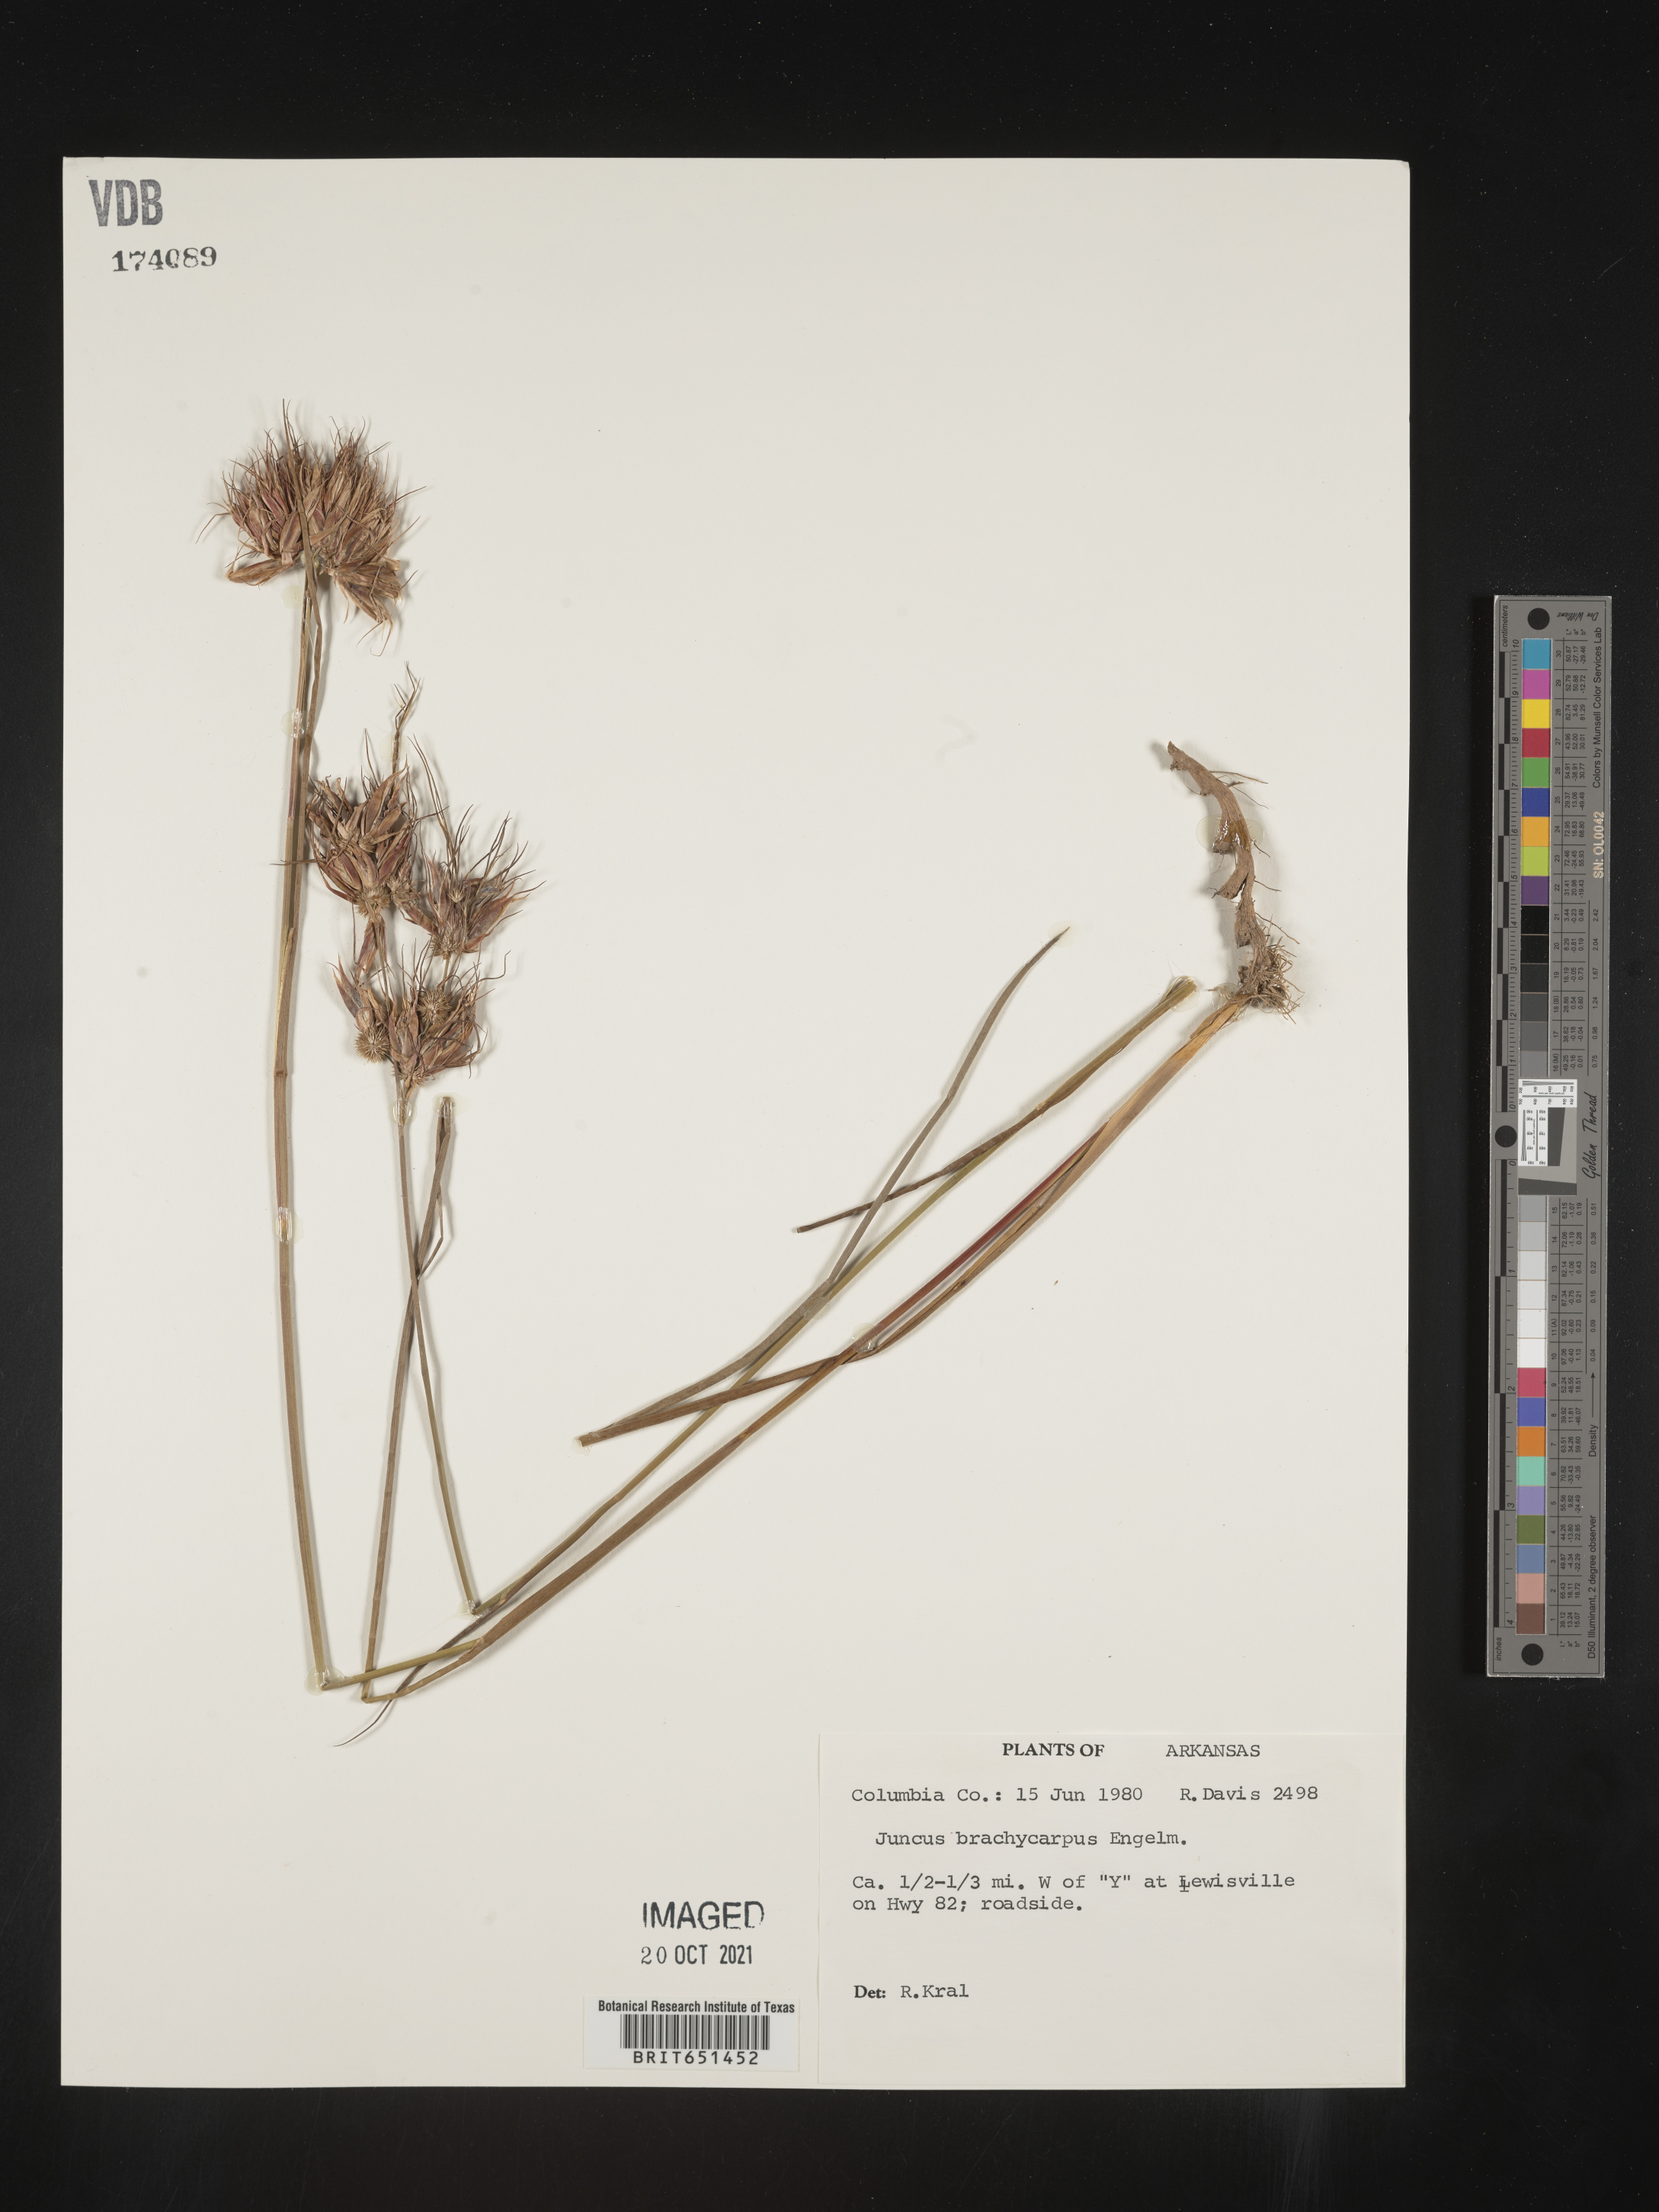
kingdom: Plantae
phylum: Tracheophyta
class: Liliopsida
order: Poales
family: Juncaceae
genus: Juncus
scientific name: Juncus brachycarpus
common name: Shore rush
